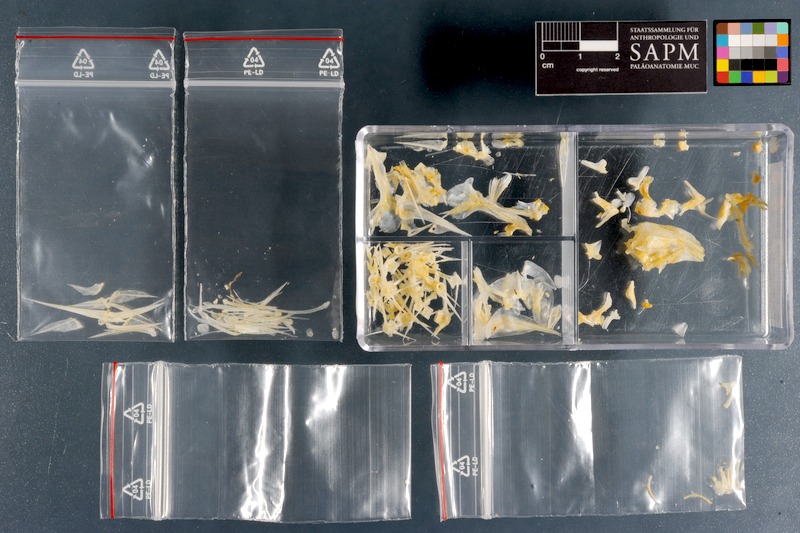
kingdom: Animalia
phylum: Chordata
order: Perciformes
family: Sparidae
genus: Crenidens
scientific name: Crenidens crenidens
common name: Karenteen seabream
